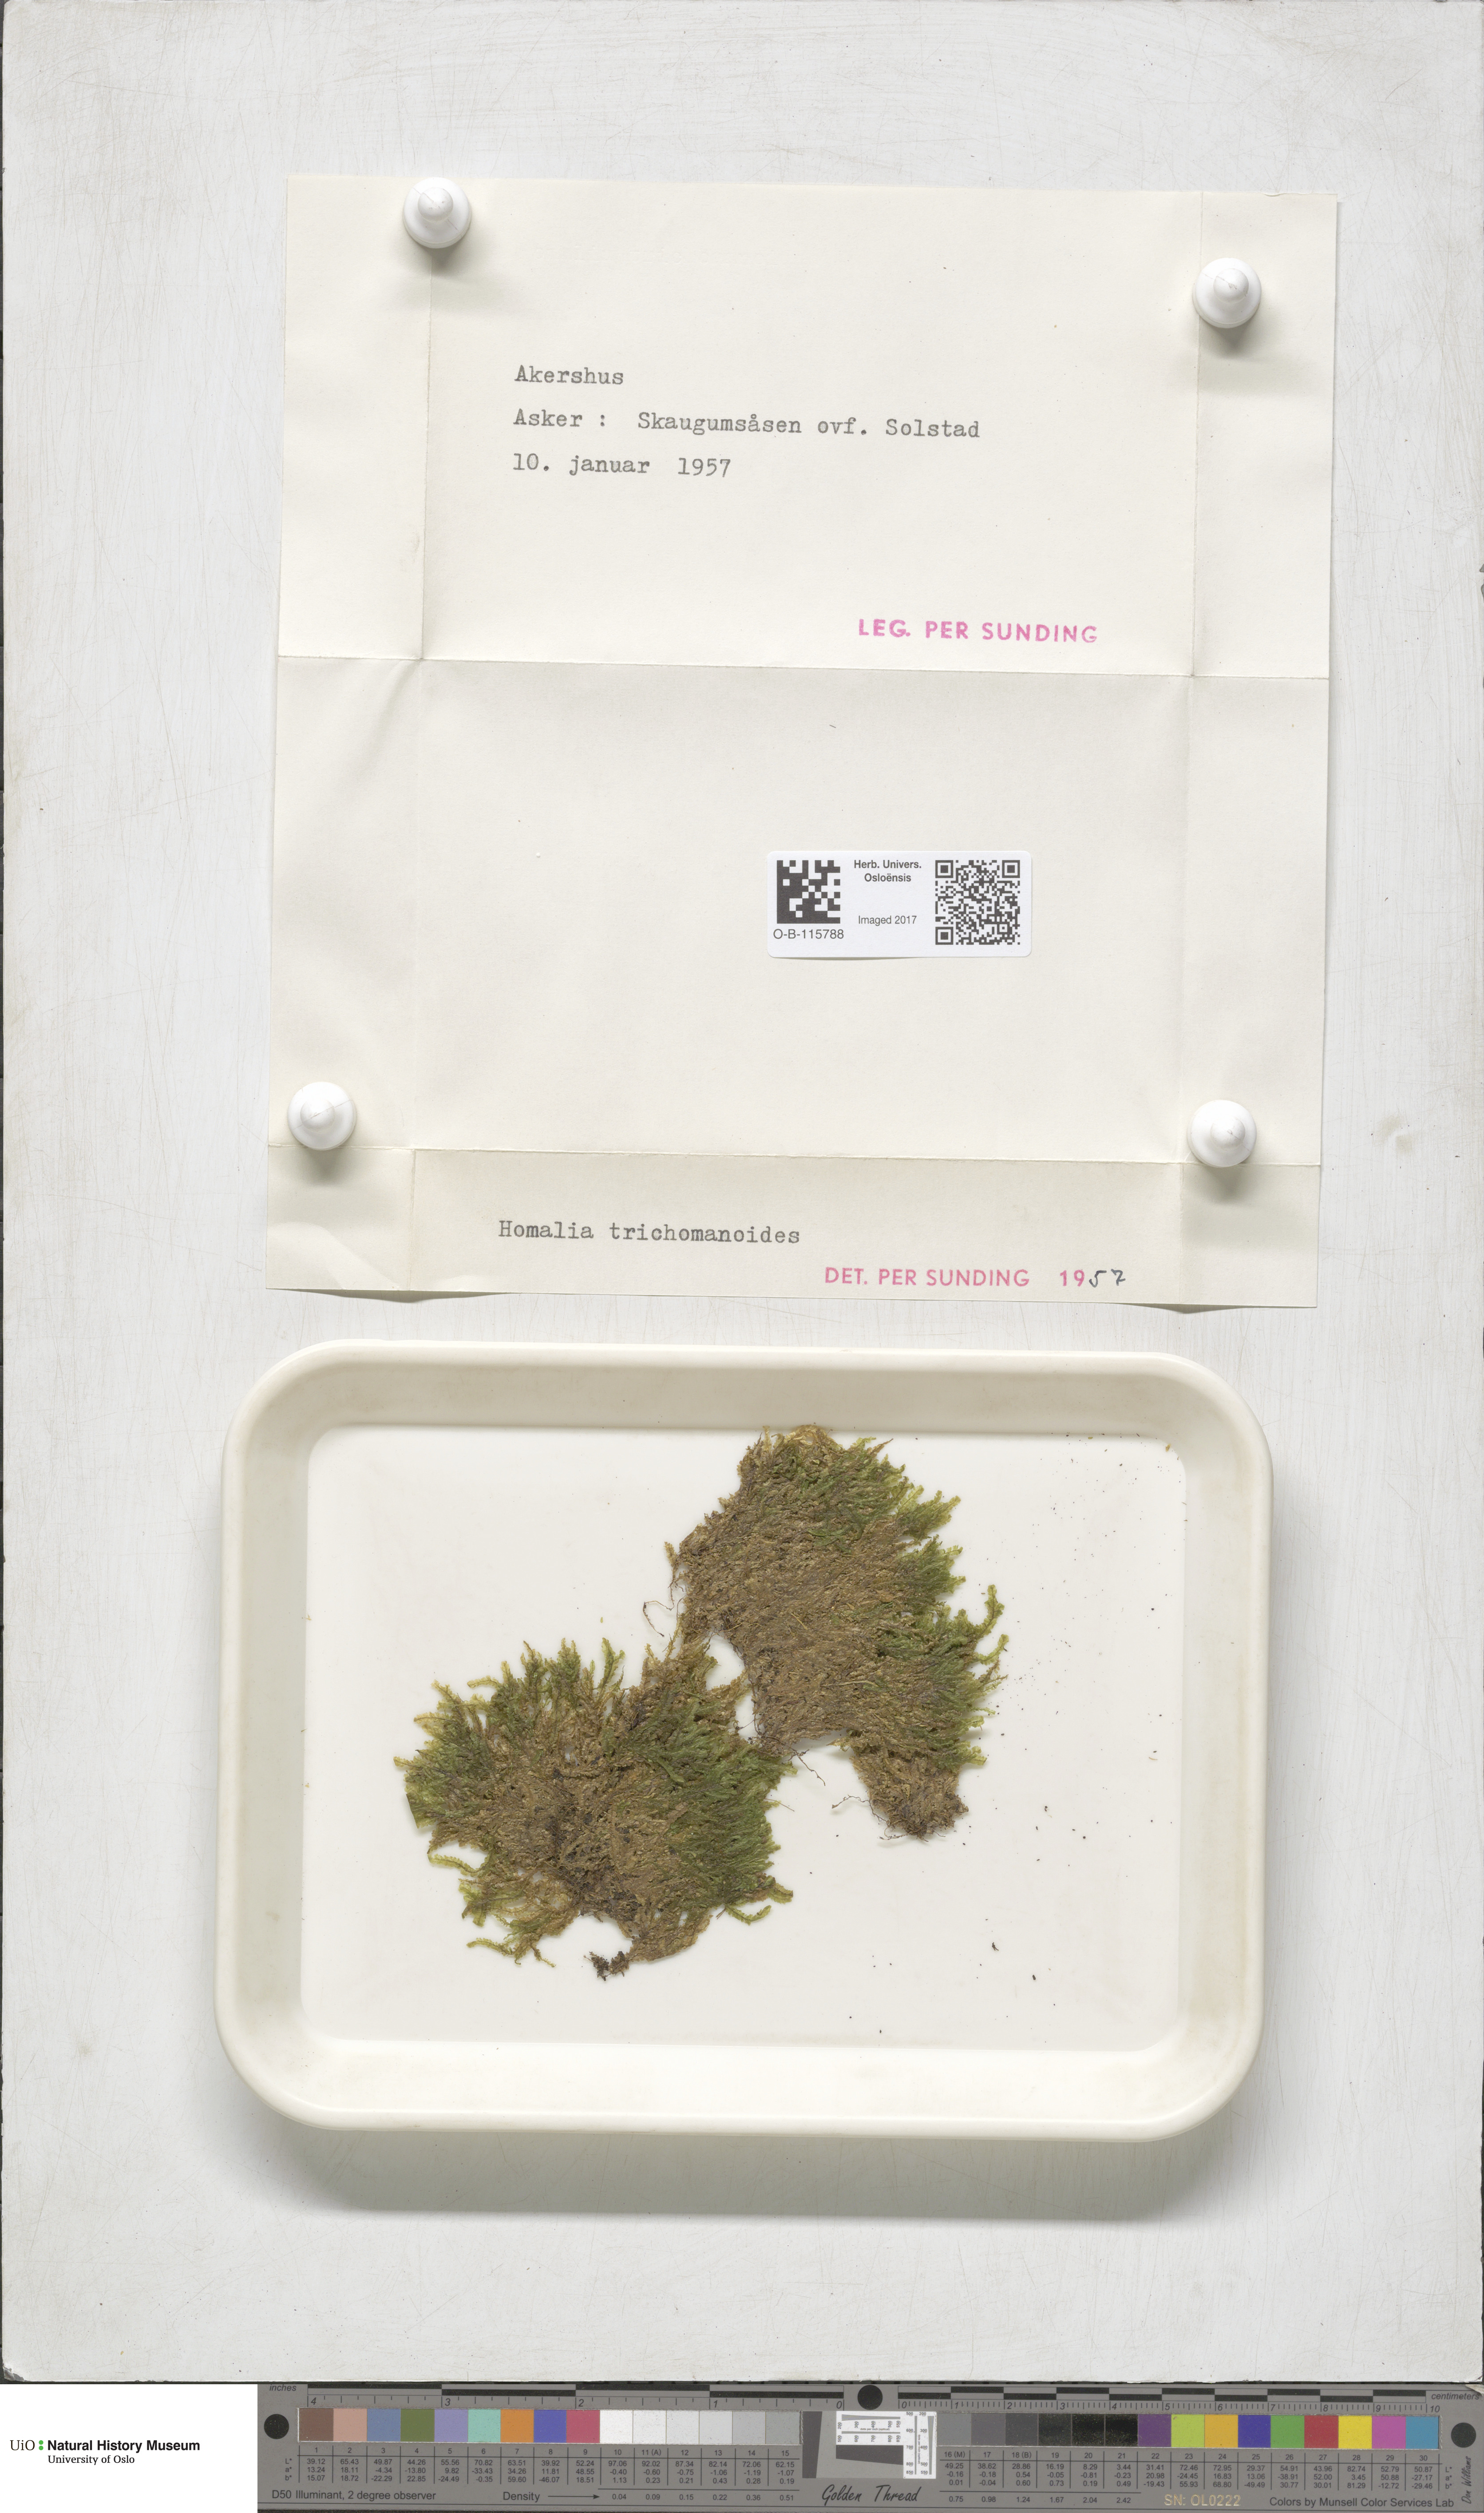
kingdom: Plantae
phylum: Bryophyta
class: Bryopsida
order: Hypnales
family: Neckeraceae
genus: Homalia
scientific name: Homalia trichomanoides
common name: Lime homalia moss
